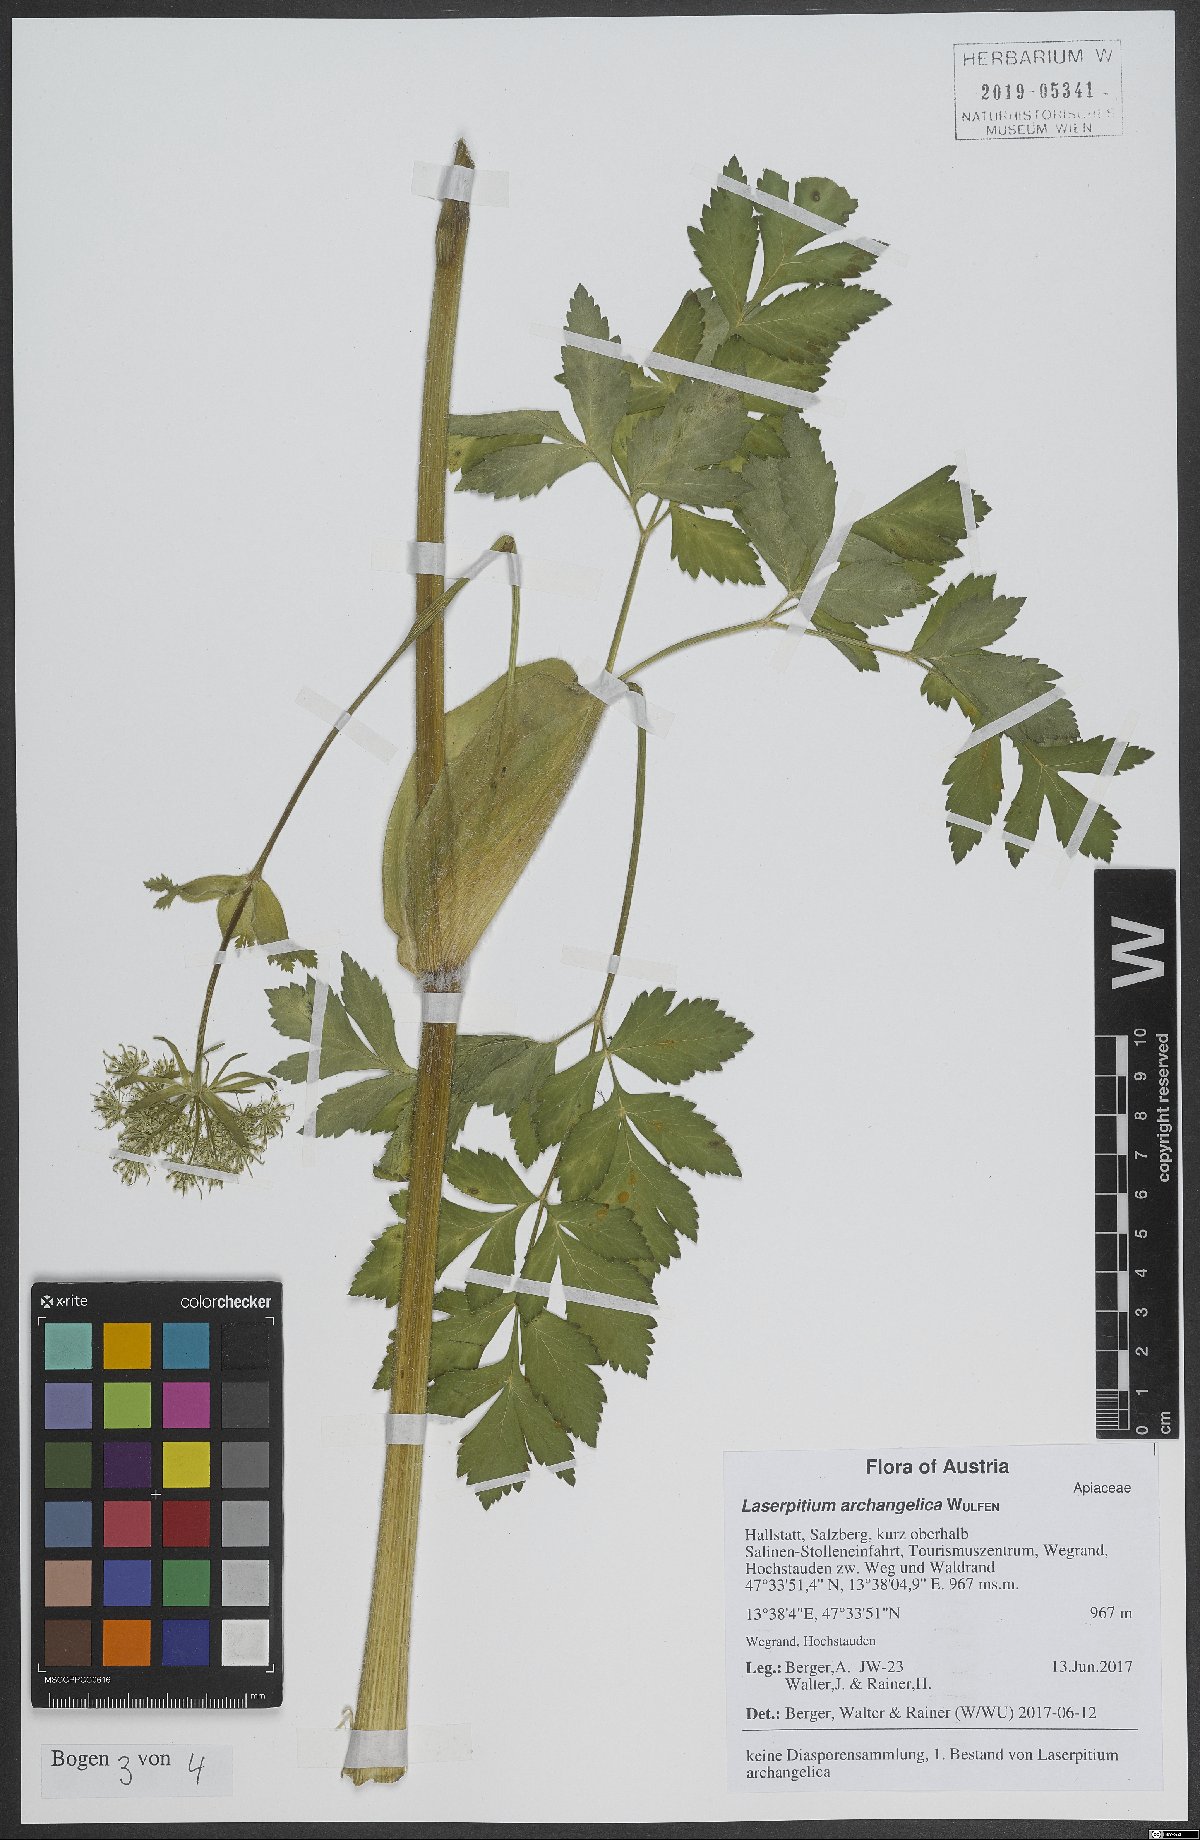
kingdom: Plantae
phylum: Tracheophyta
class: Magnoliopsida
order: Apiales
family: Apiaceae
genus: Laser
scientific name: Laser archangelica
